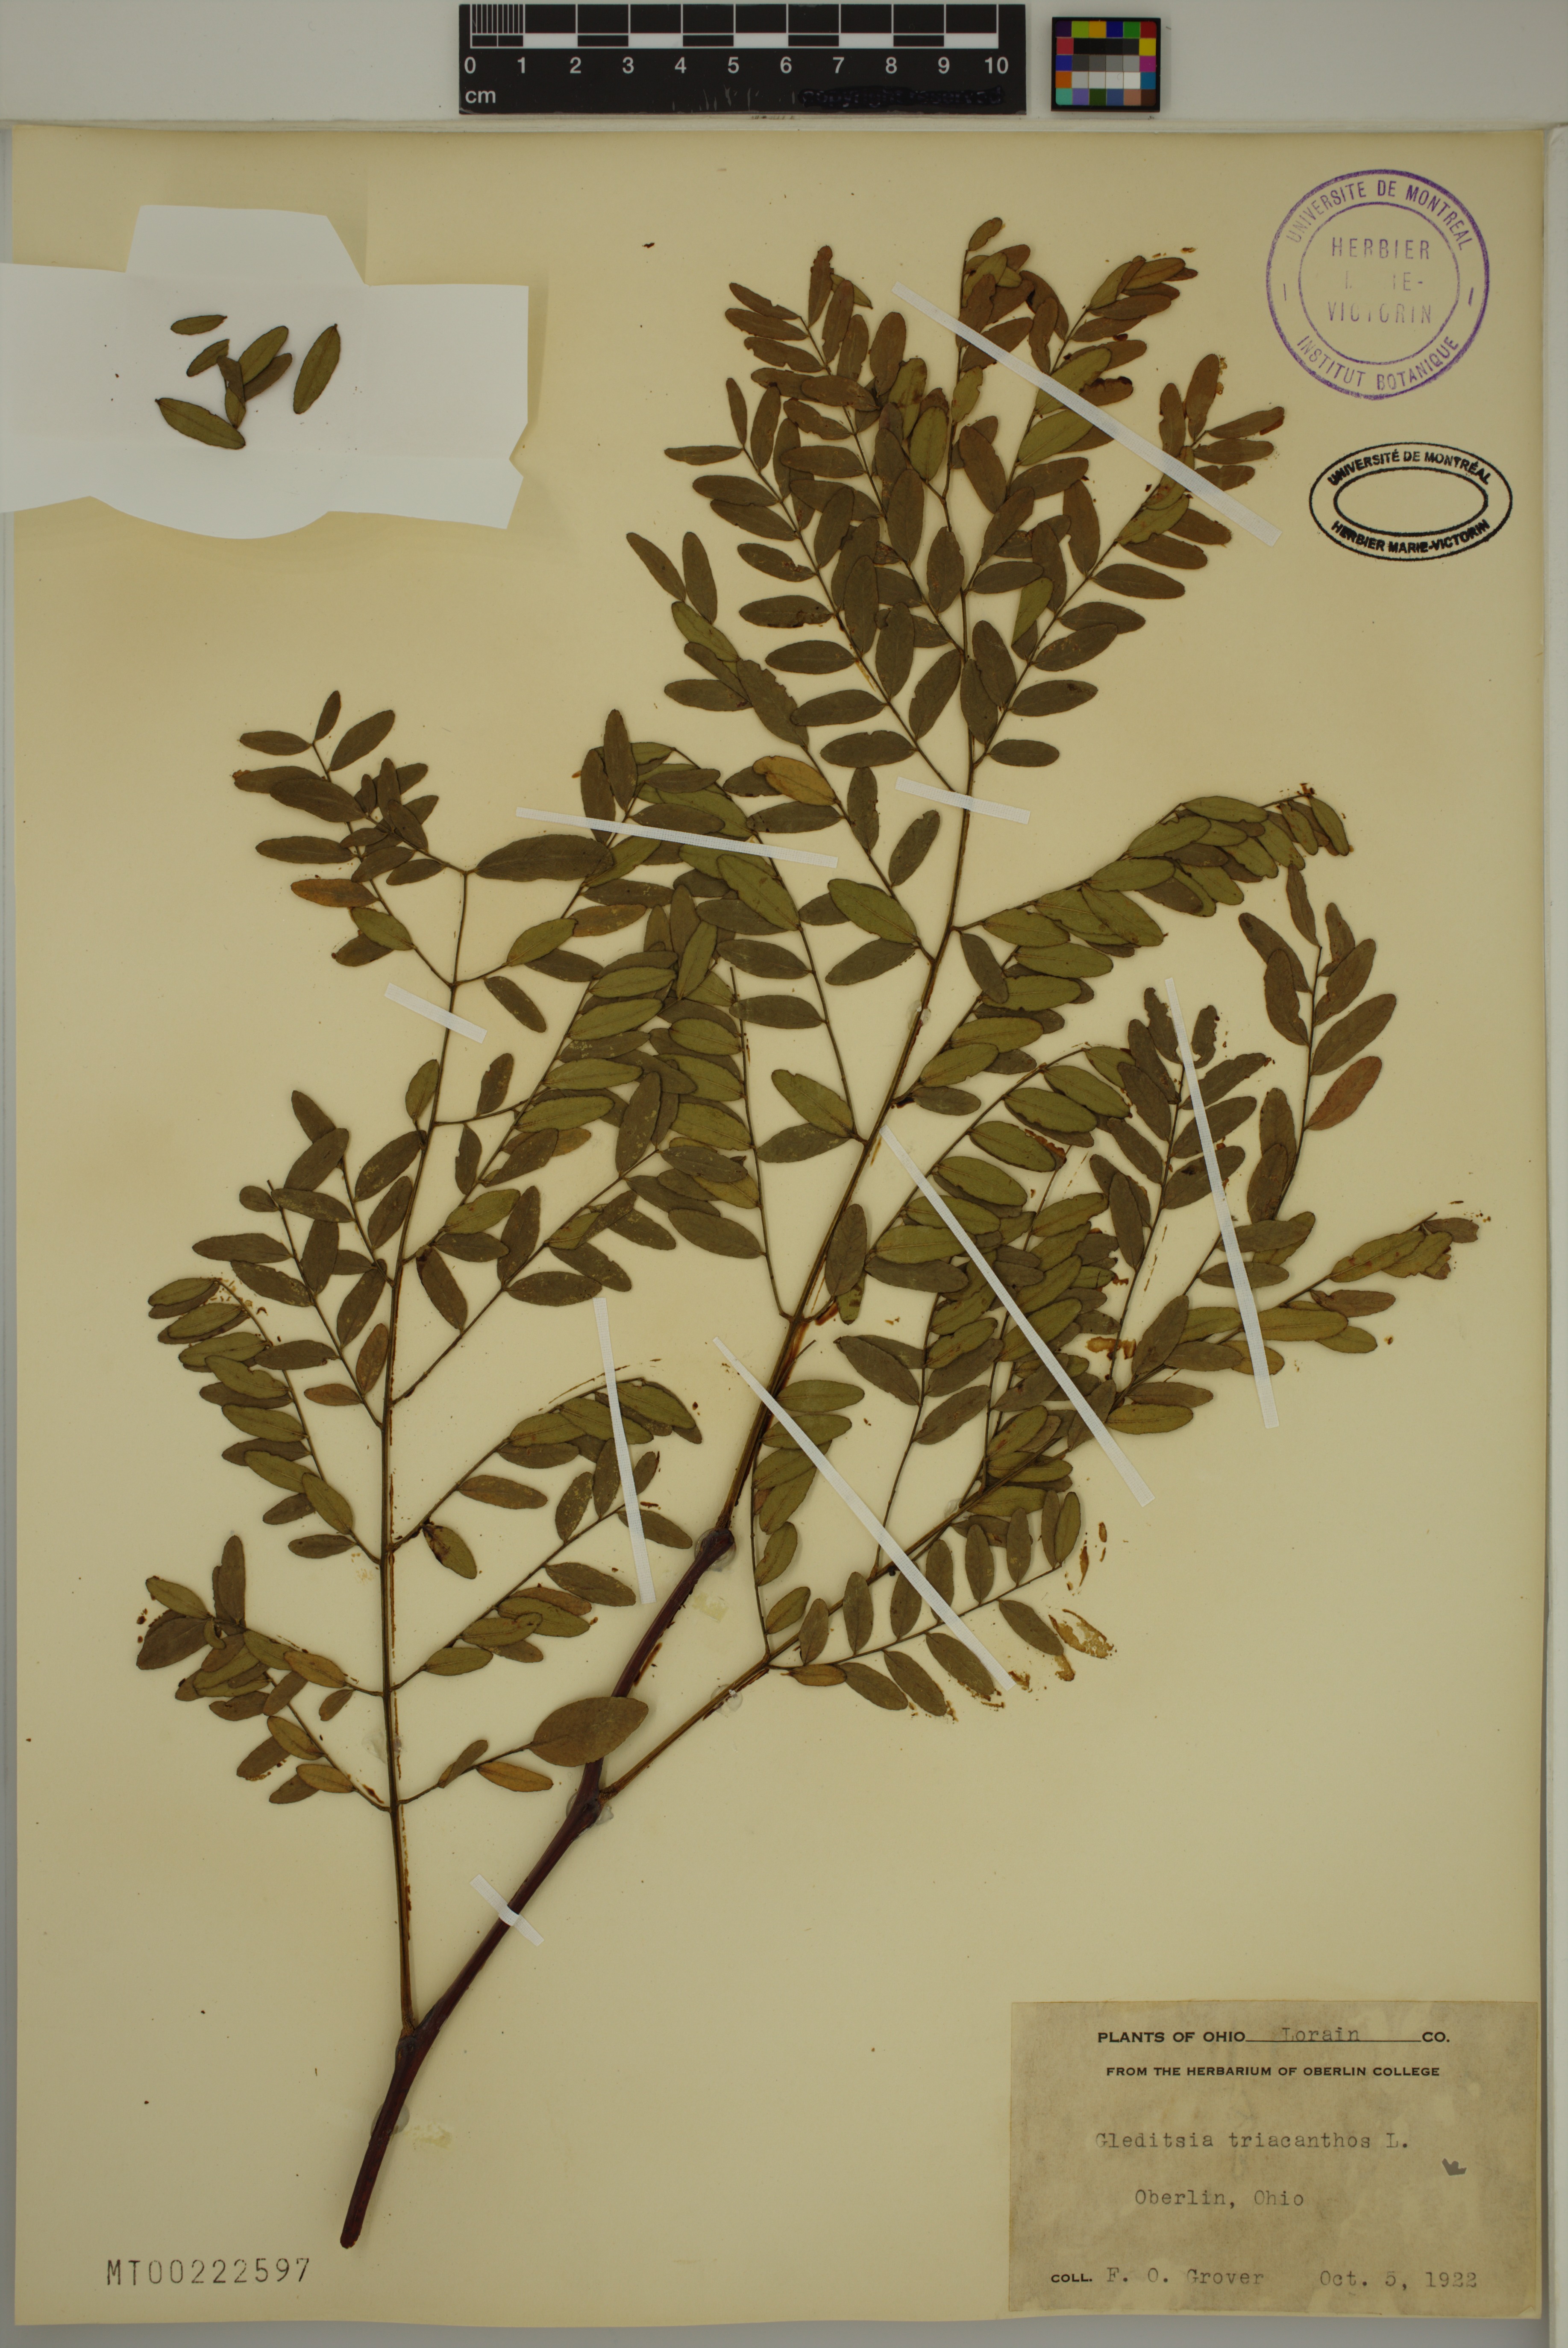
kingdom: Plantae
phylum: Tracheophyta
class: Magnoliopsida
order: Fabales
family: Fabaceae
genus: Gleditsia
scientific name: Gleditsia triacanthos
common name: Common honeylocust
